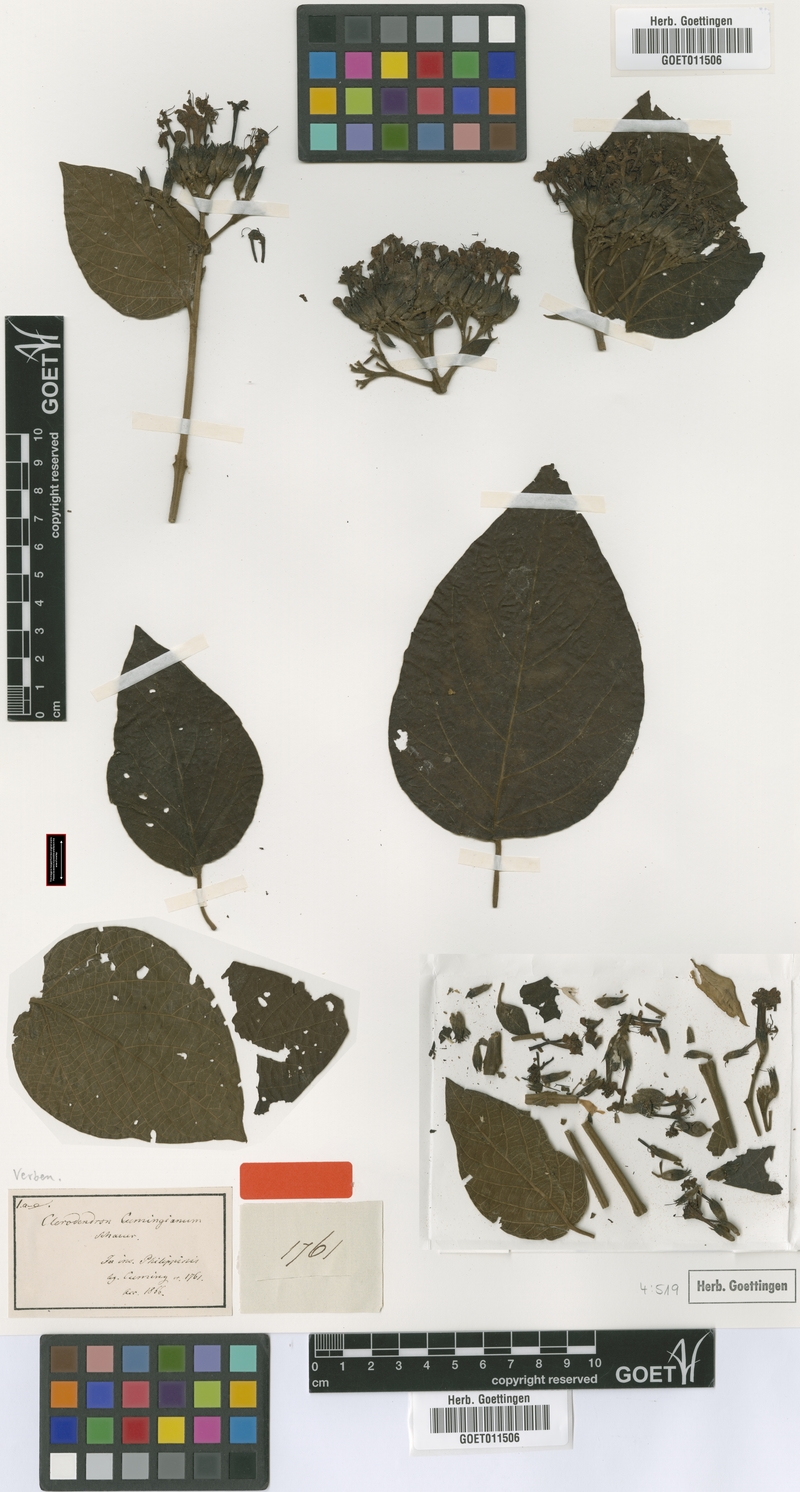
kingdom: Plantae
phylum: Tracheophyta
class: Magnoliopsida
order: Lamiales
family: Lamiaceae
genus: Clerodendrum
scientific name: Clerodendrum lanuginosum
